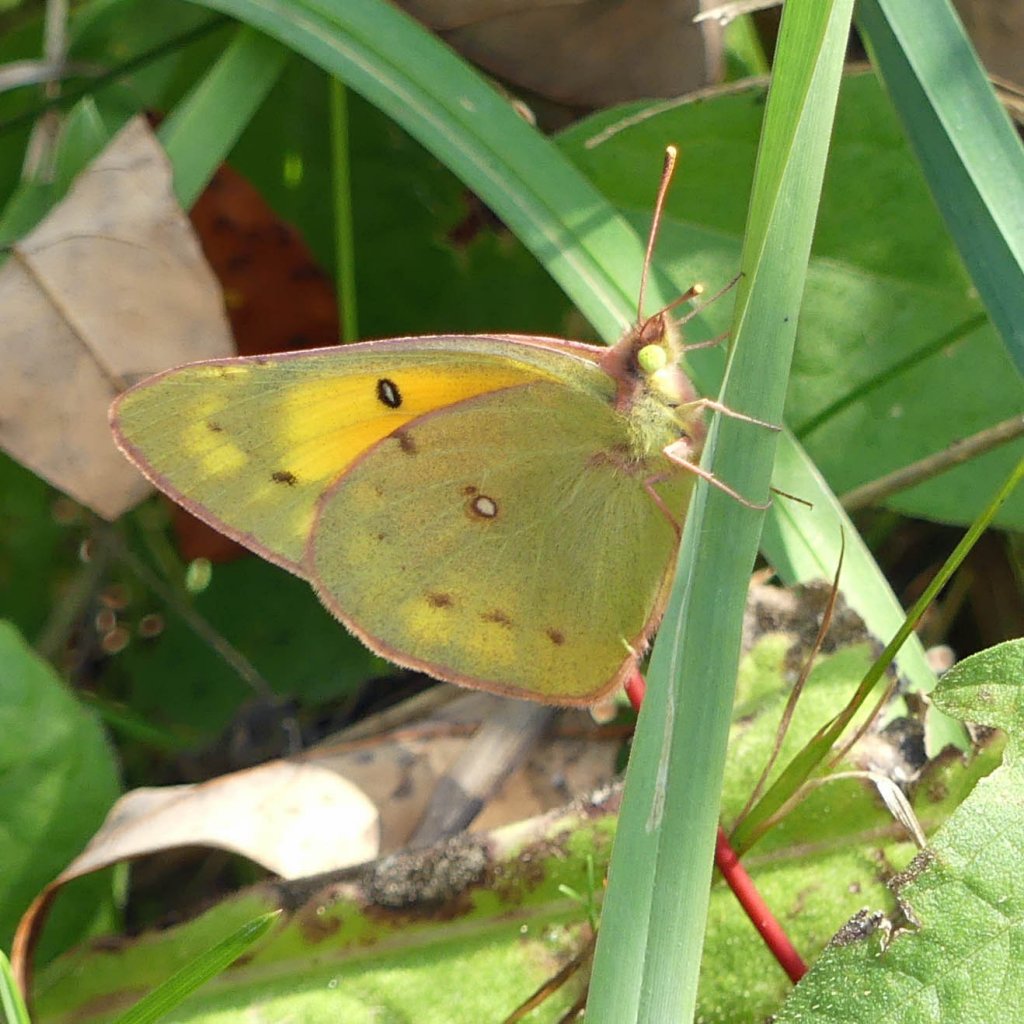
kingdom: Animalia
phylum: Arthropoda
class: Insecta
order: Lepidoptera
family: Pieridae
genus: Colias
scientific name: Colias eurytheme
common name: Orange Sulphur
